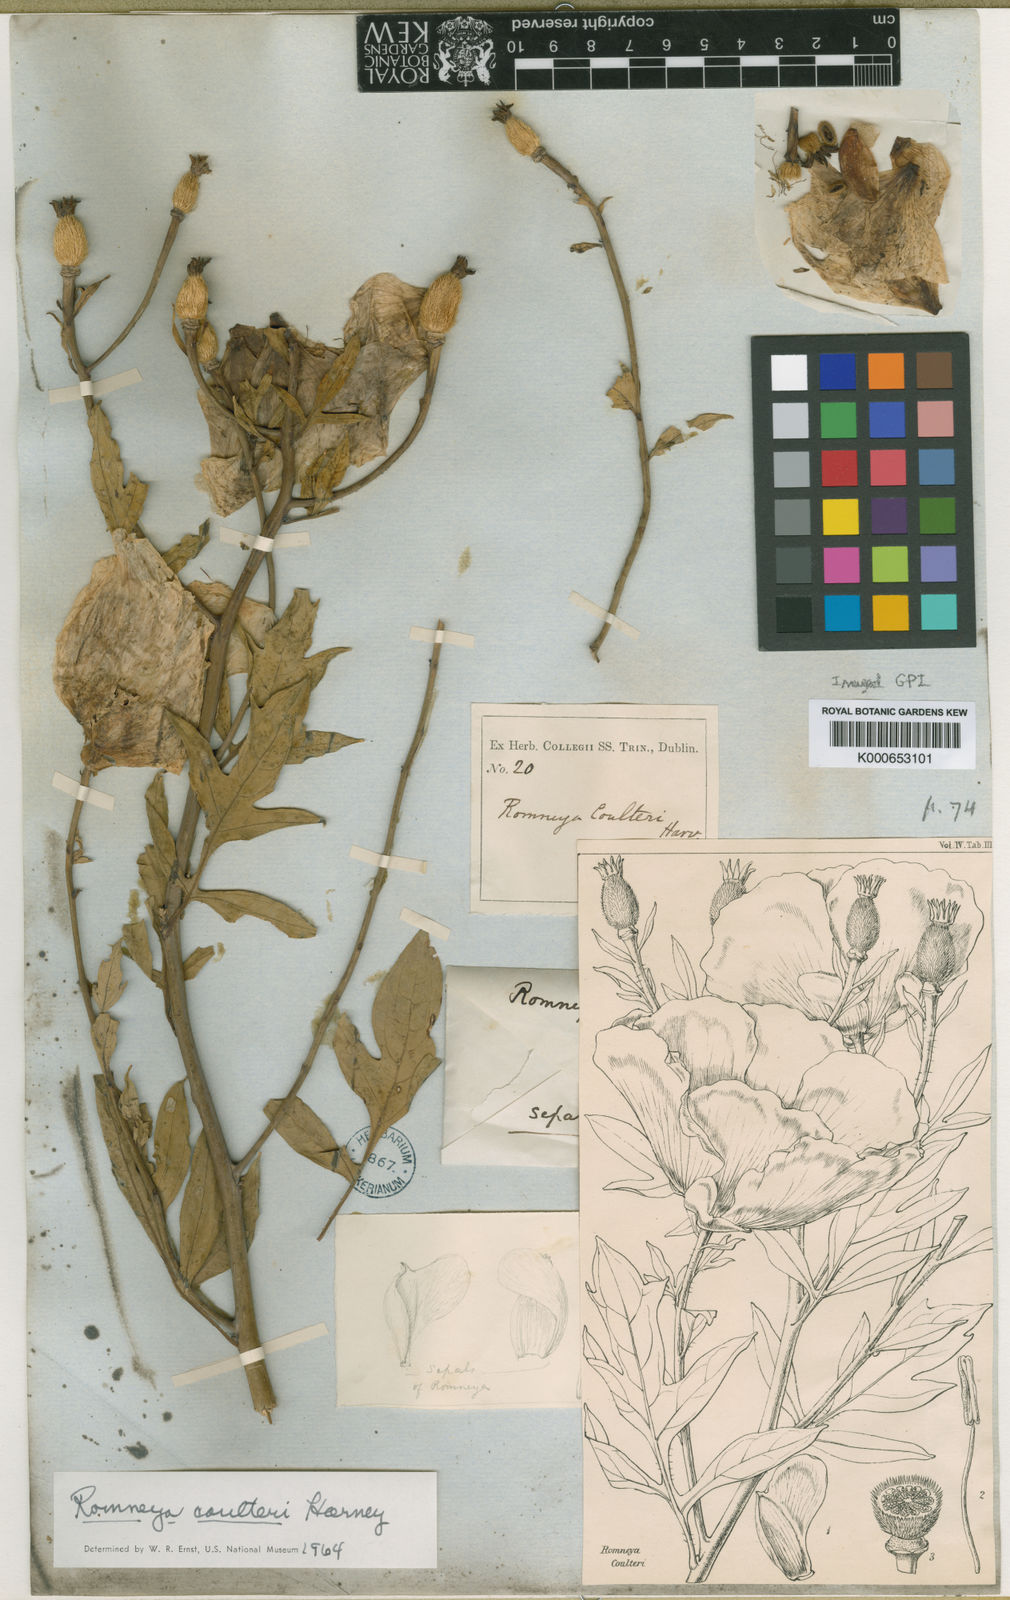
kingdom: Plantae
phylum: Tracheophyta
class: Magnoliopsida
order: Ranunculales
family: Papaveraceae
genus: Romneya
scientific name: Romneya coulteri
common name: California tree-poppy
